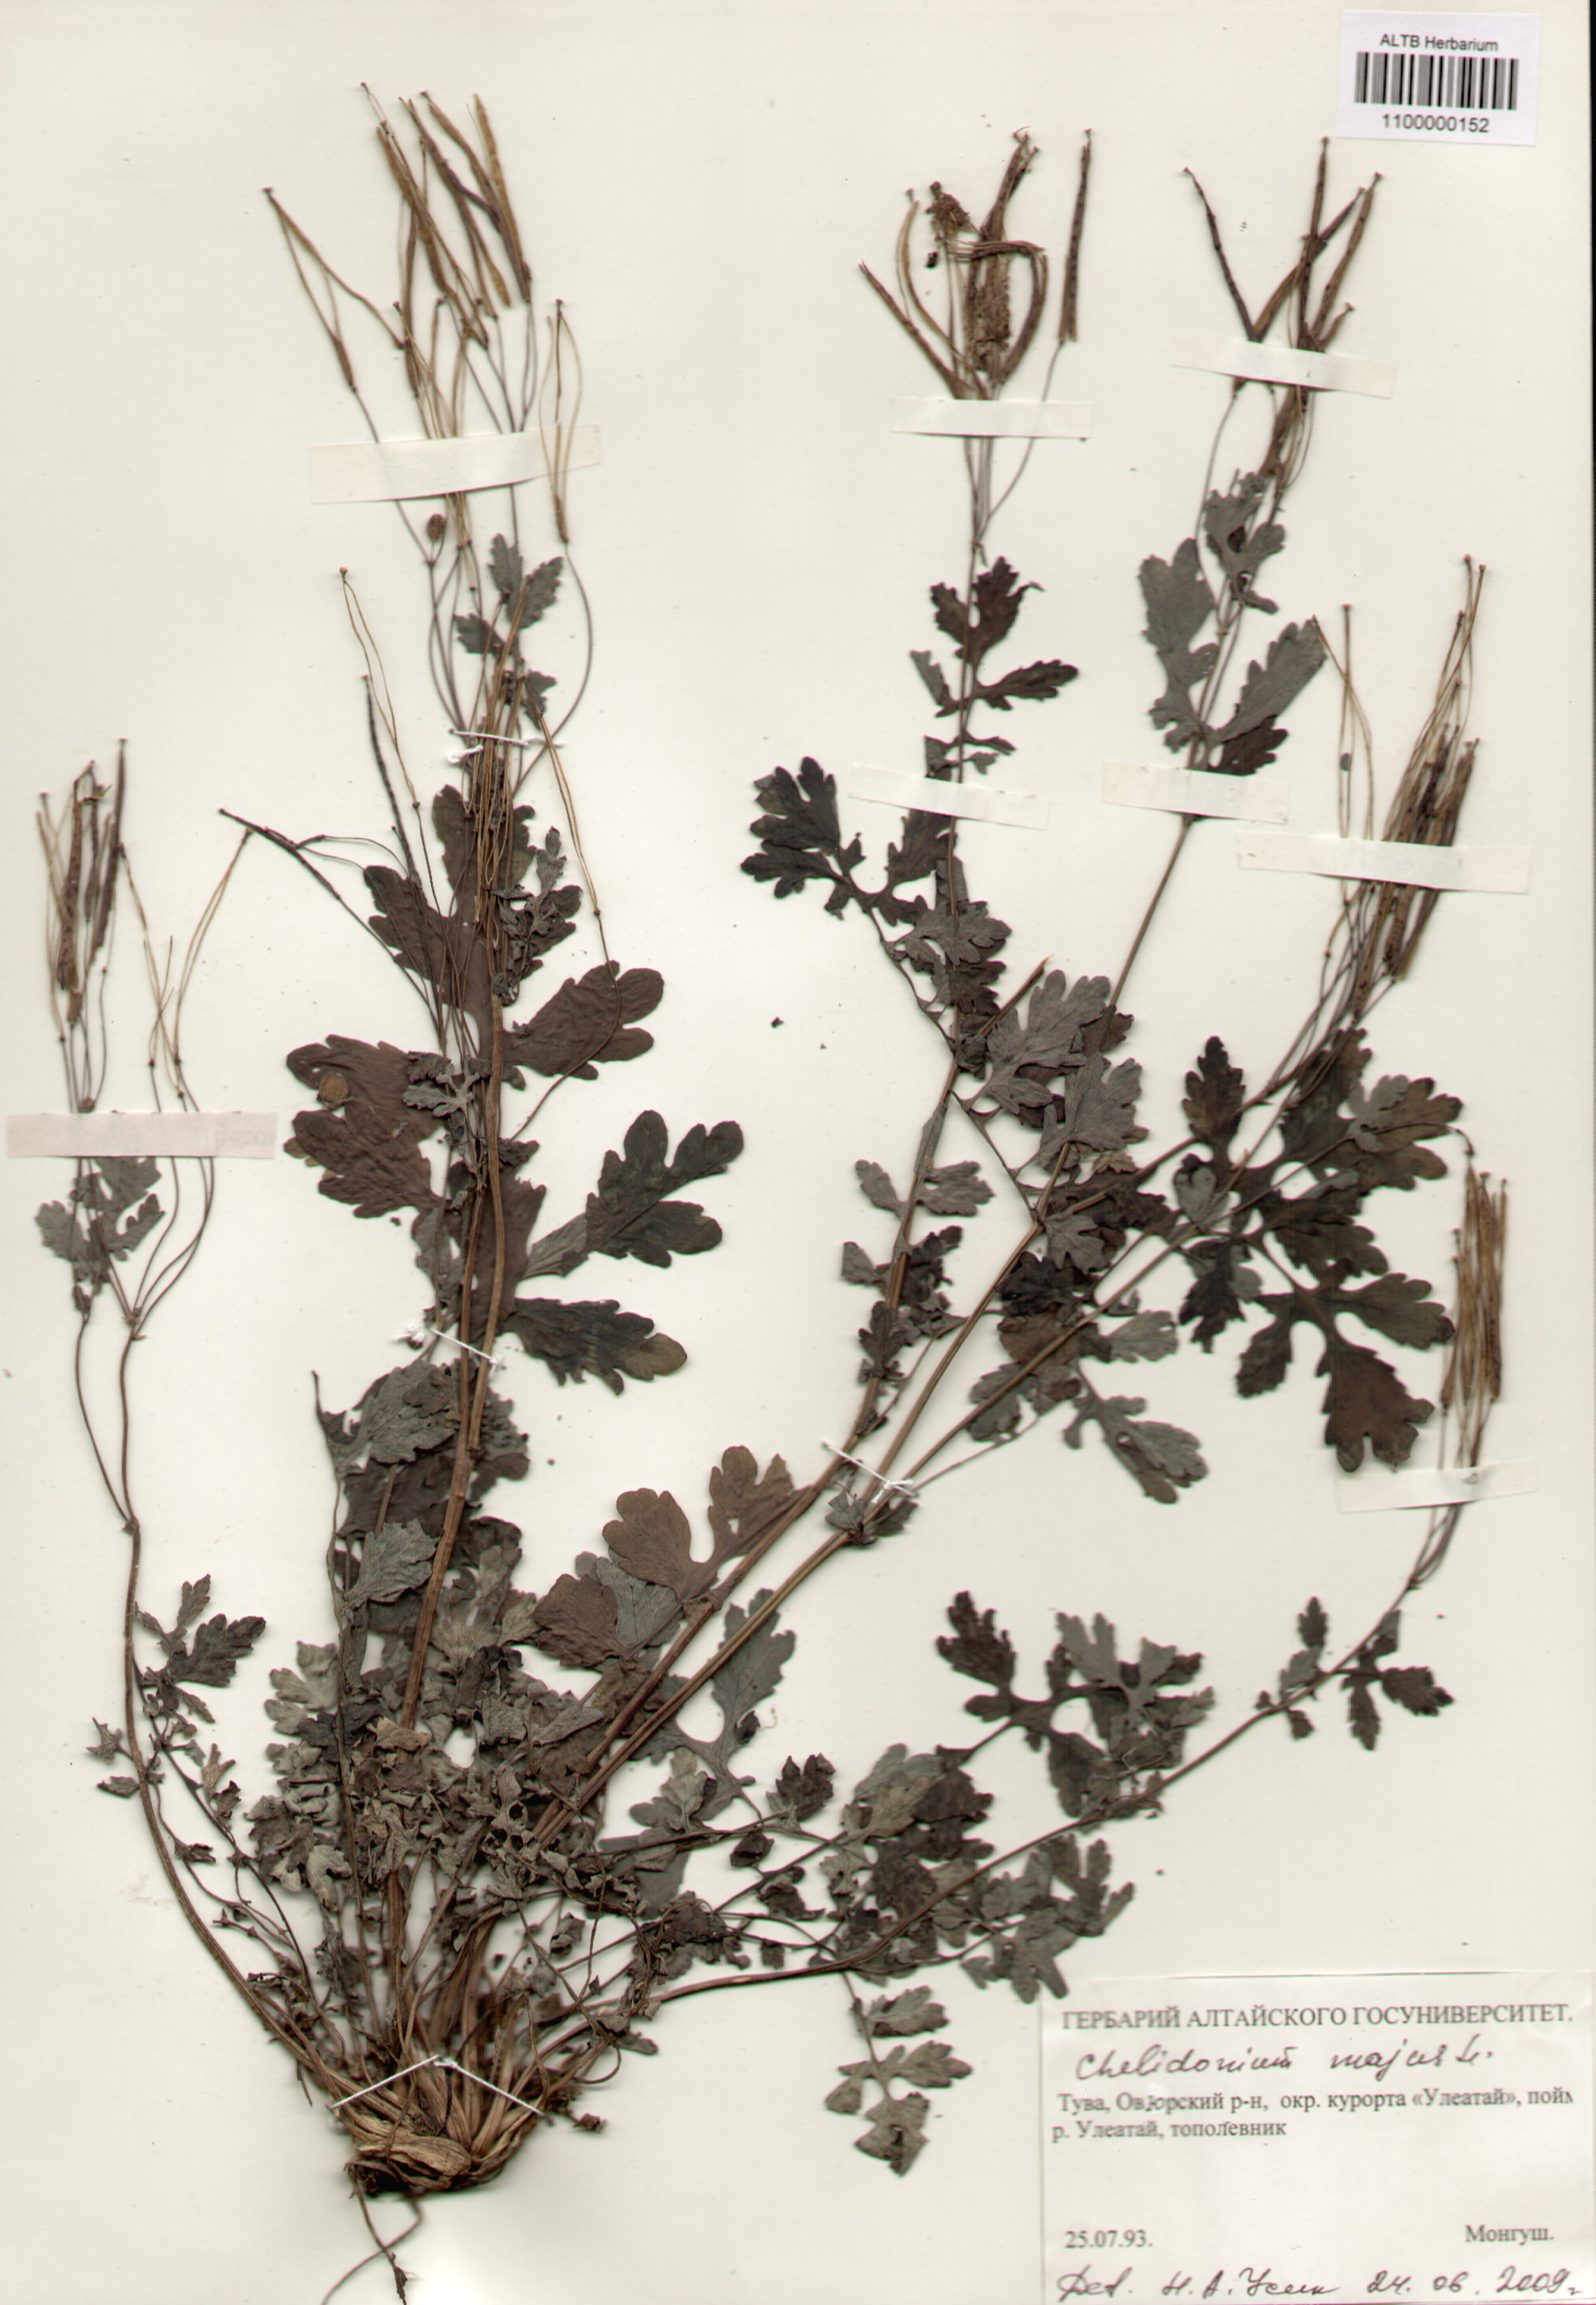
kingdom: Plantae
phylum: Tracheophyta
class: Magnoliopsida
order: Ranunculales
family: Papaveraceae
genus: Chelidonium
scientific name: Chelidonium majus
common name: Greater celandine
